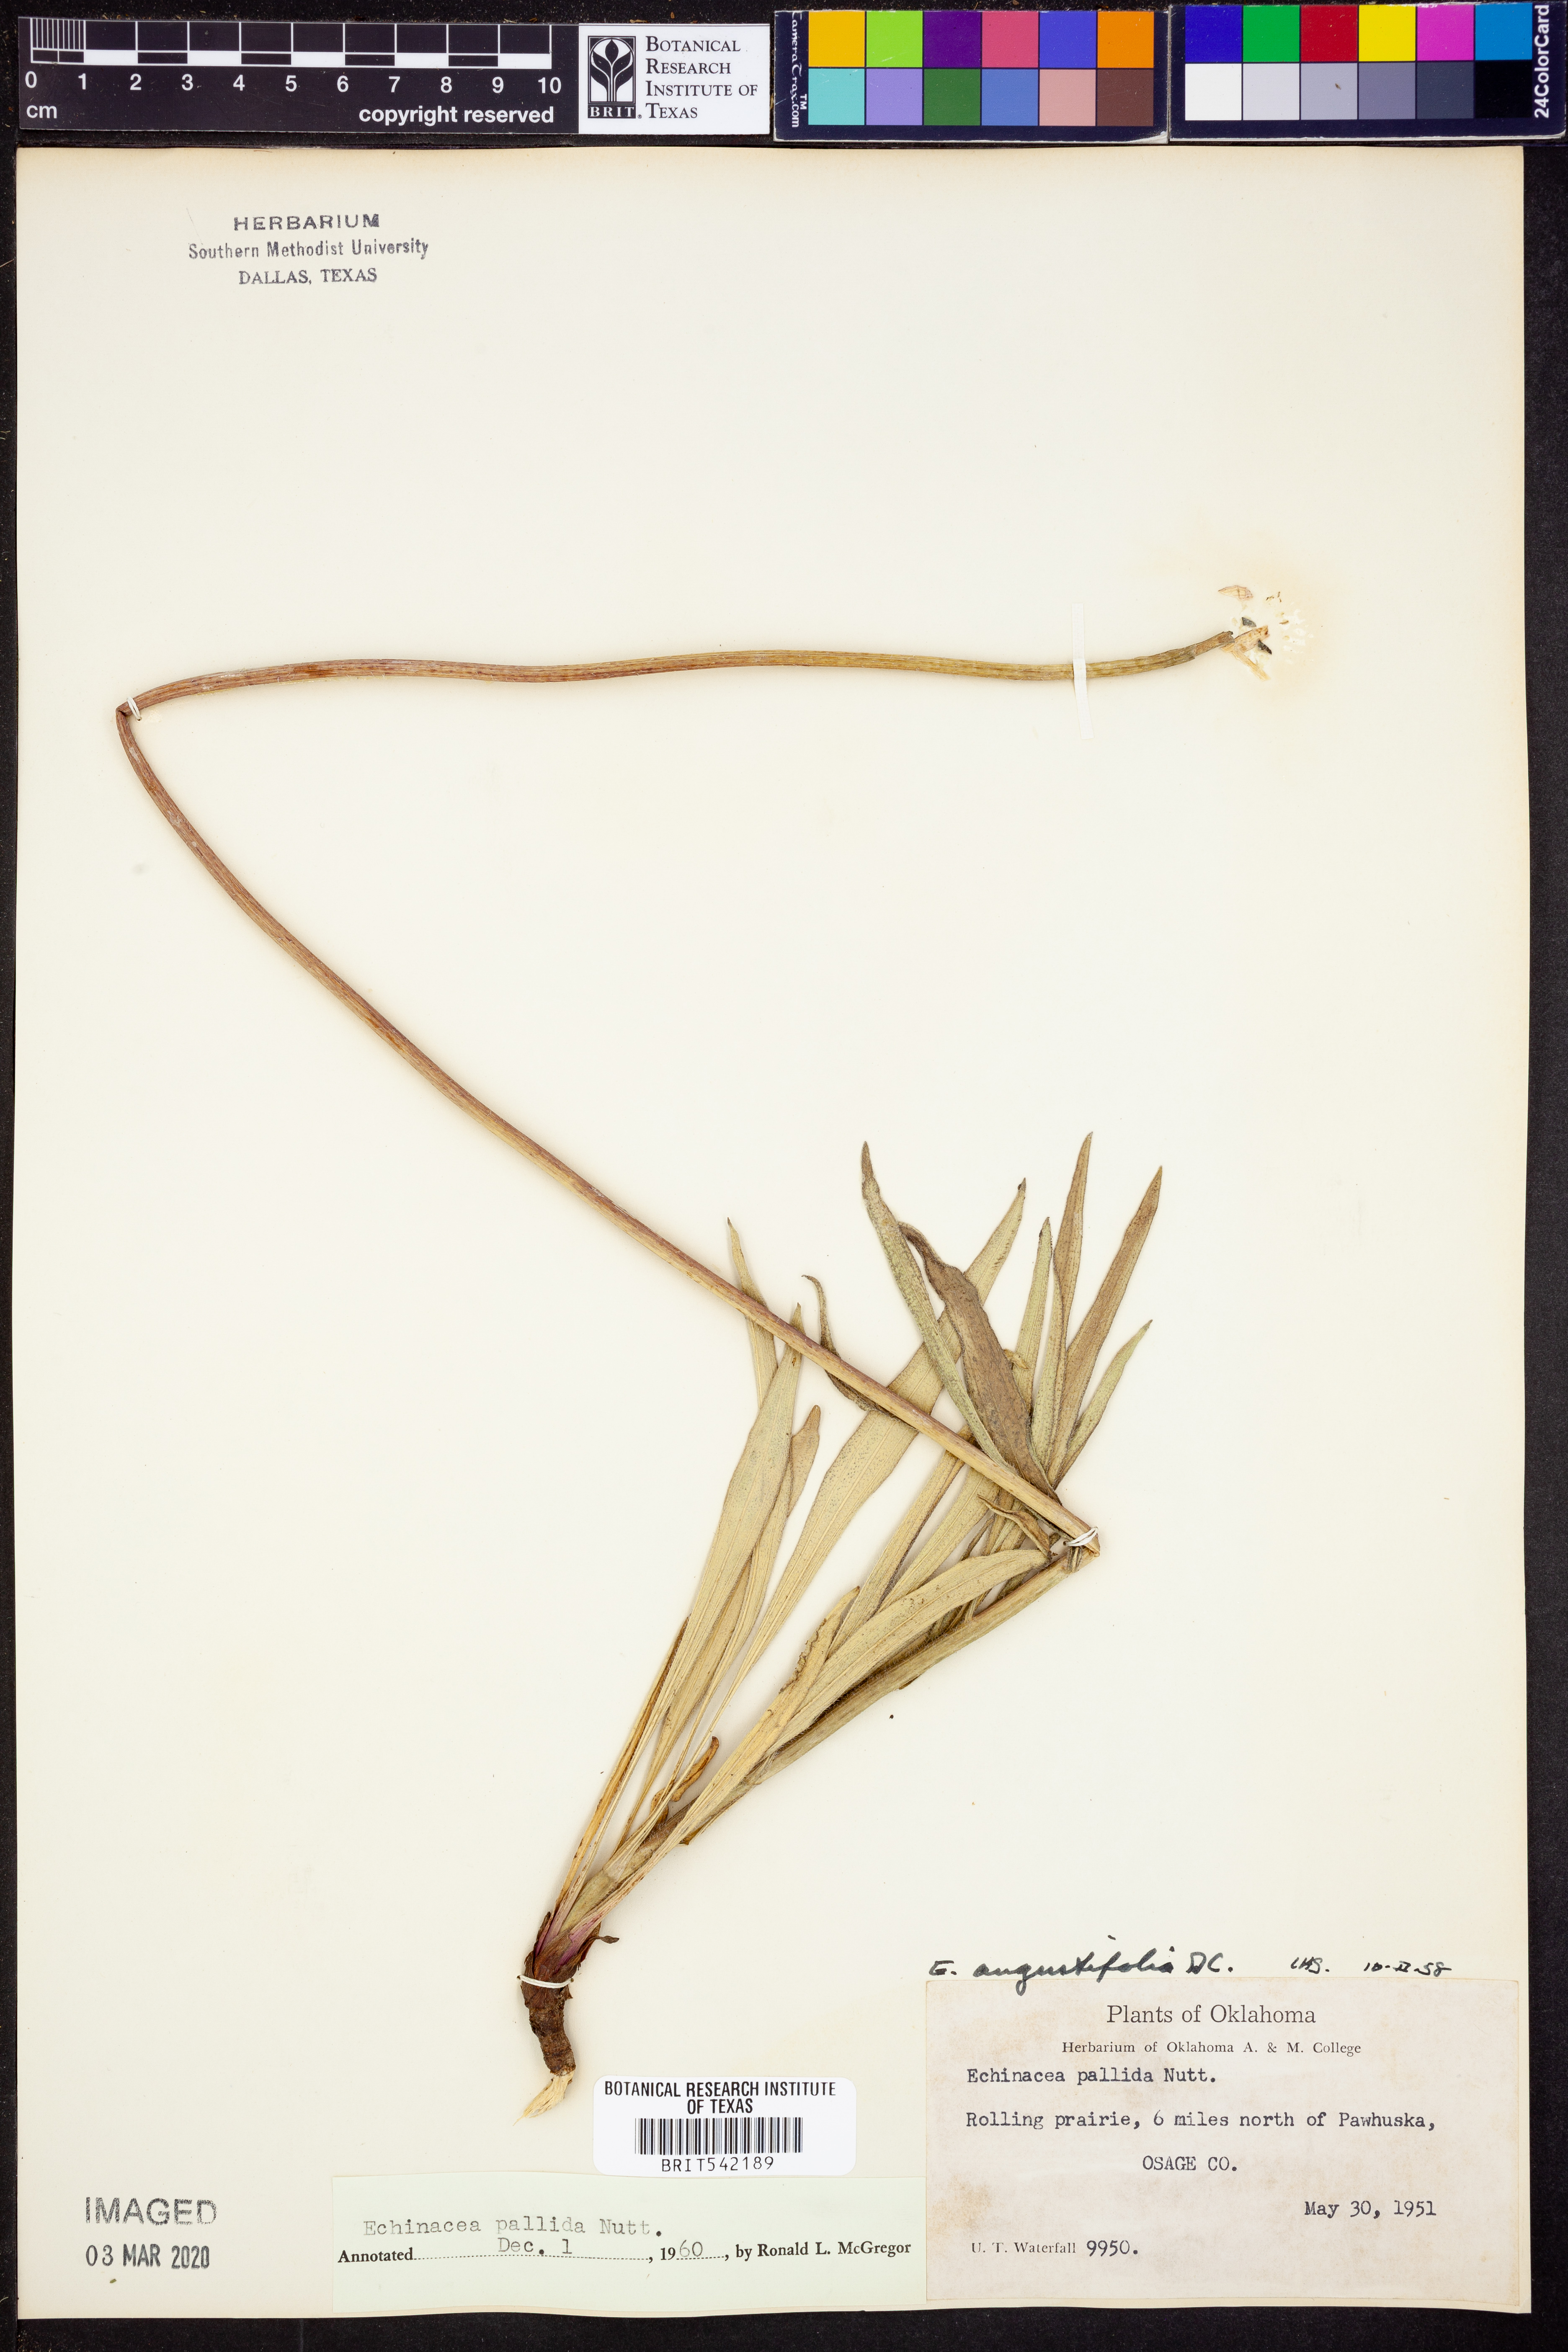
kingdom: Plantae
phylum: Tracheophyta
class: Magnoliopsida
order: Asterales
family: Asteraceae
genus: Echinacea
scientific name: Echinacea pallida
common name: Pale echinacea
